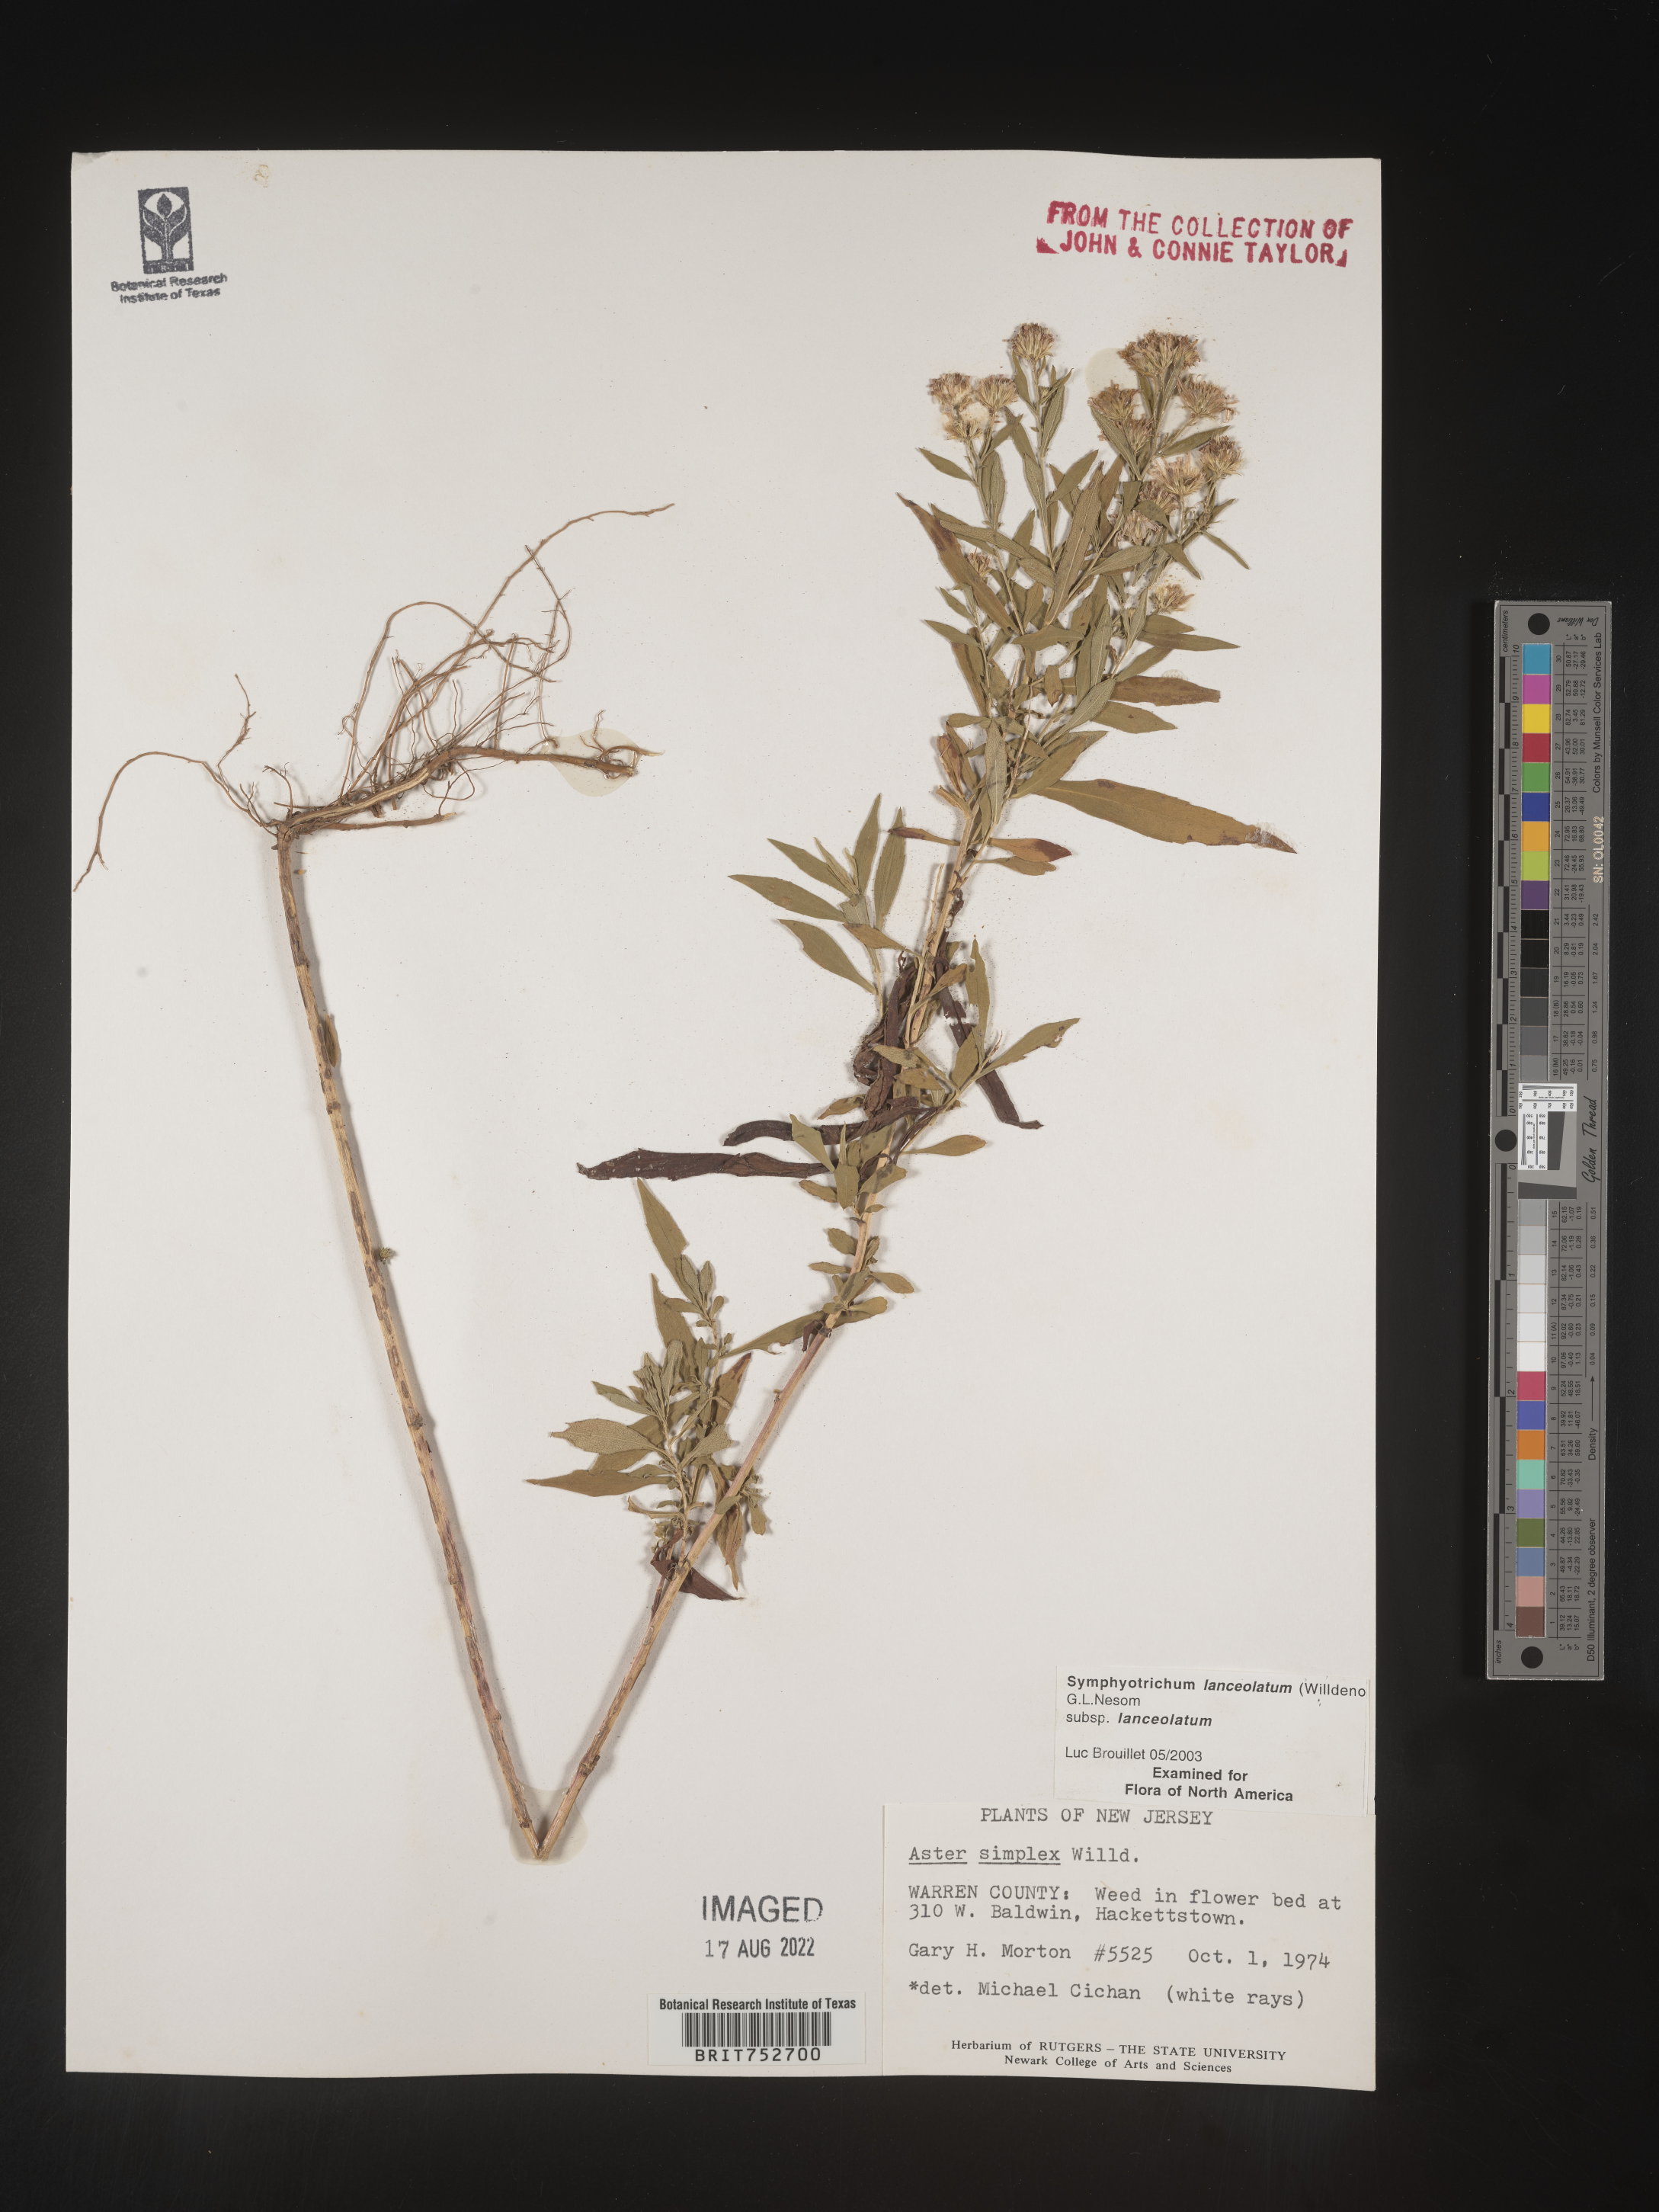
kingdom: Plantae
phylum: Tracheophyta
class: Magnoliopsida
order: Asterales
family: Asteraceae
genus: Symphyotrichum
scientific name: Symphyotrichum lanceolatum
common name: Panicled aster
